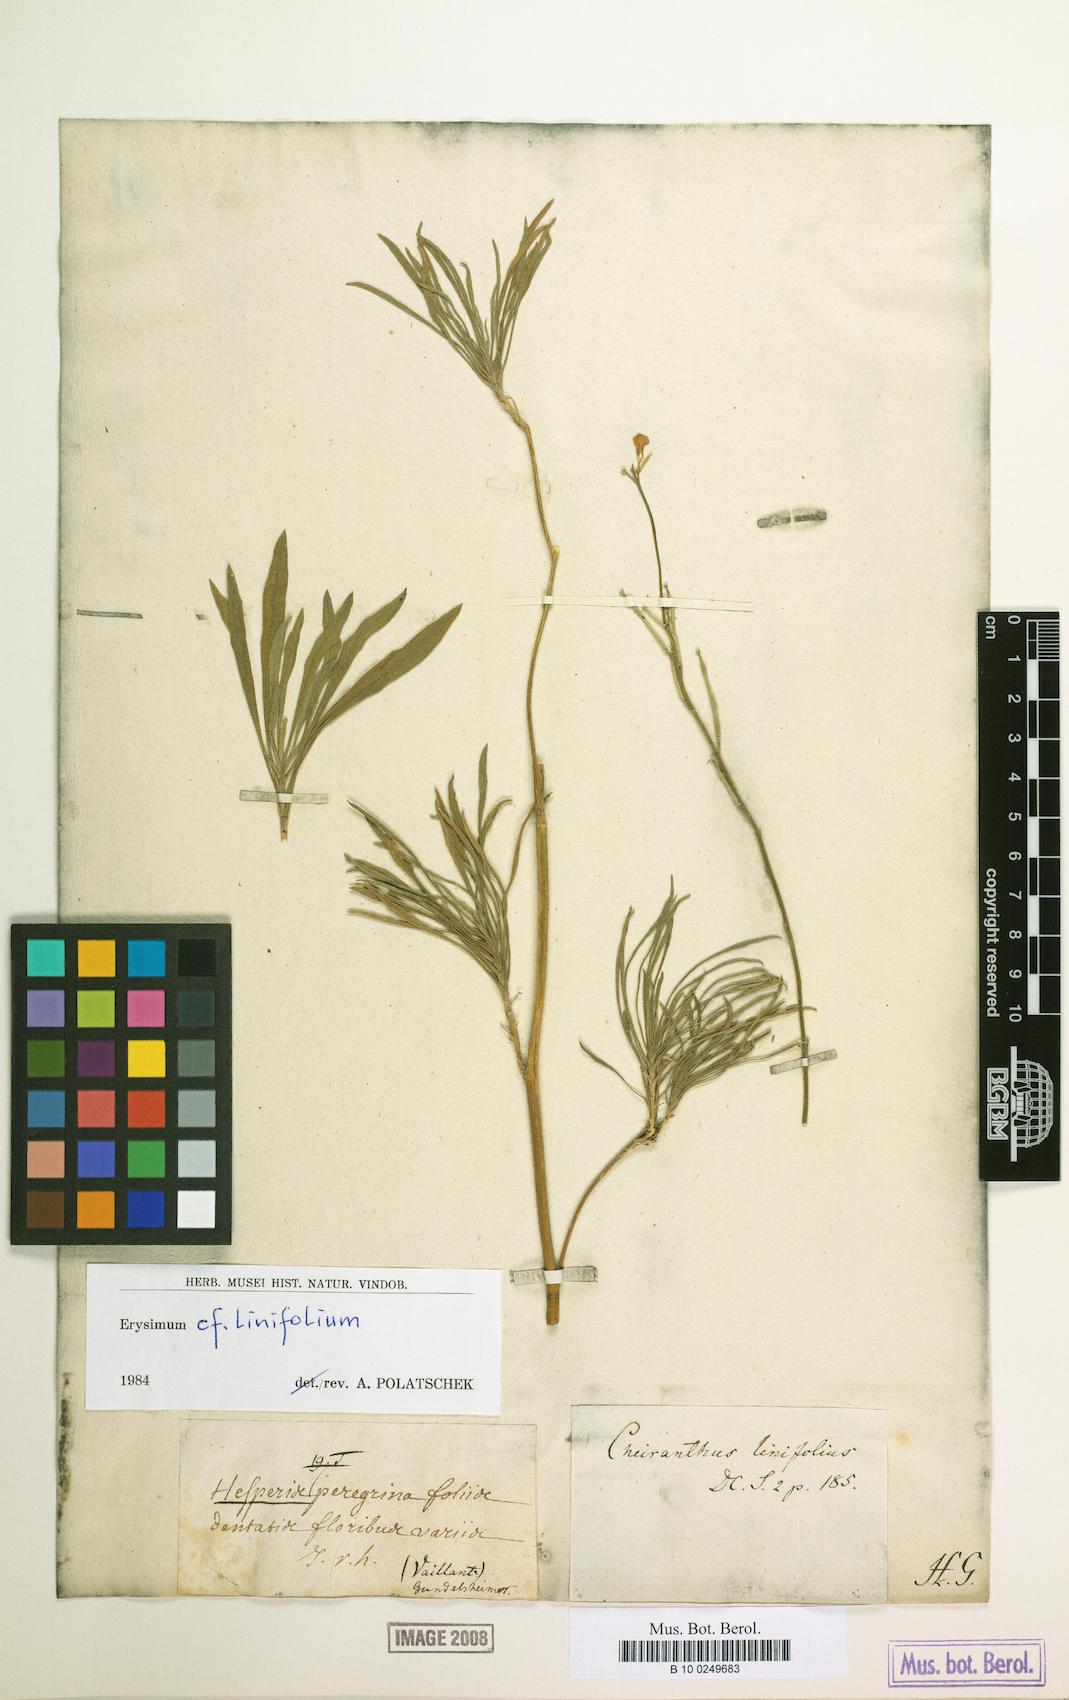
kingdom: Plantae
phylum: Tracheophyta
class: Magnoliopsida
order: Brassicales
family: Brassicaceae
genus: Erysimum
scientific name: Erysimum linifolium
